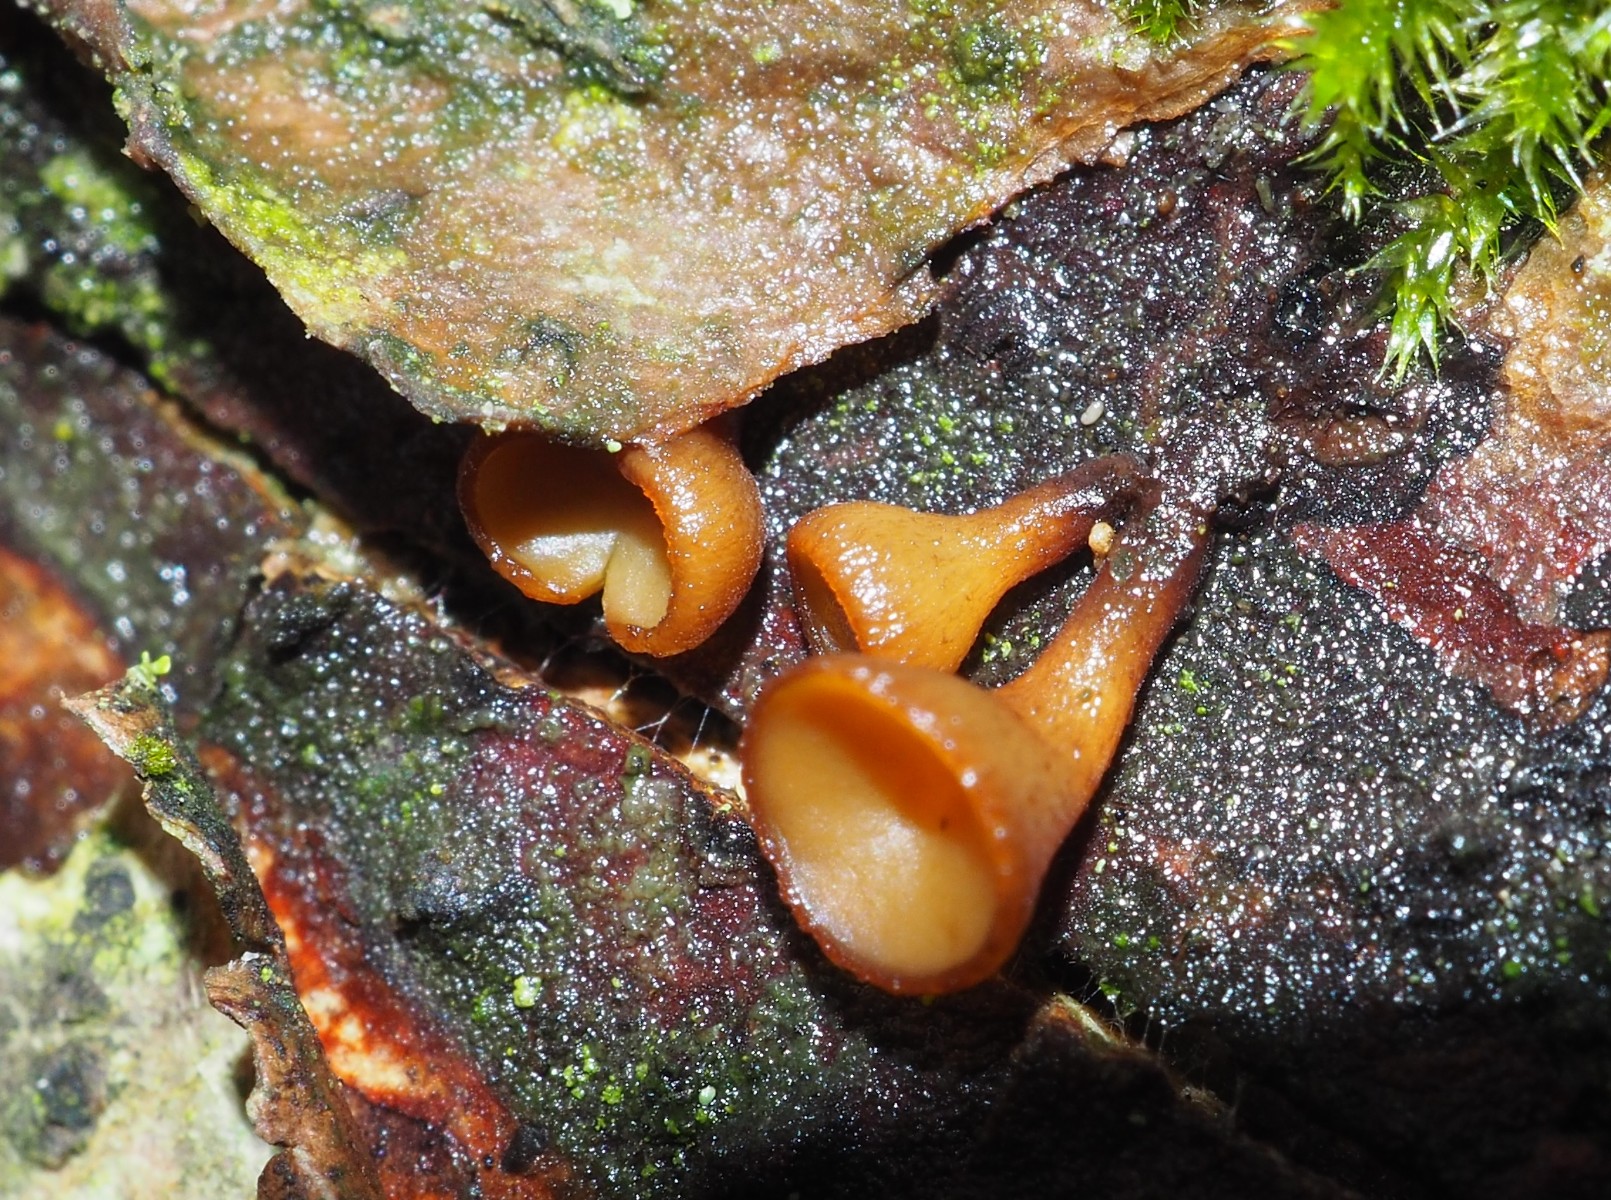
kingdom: Fungi
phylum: Ascomycota
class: Leotiomycetes
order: Helotiales
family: Rutstroemiaceae
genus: Rutstroemia
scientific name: Rutstroemia firma
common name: gren-brunskive
